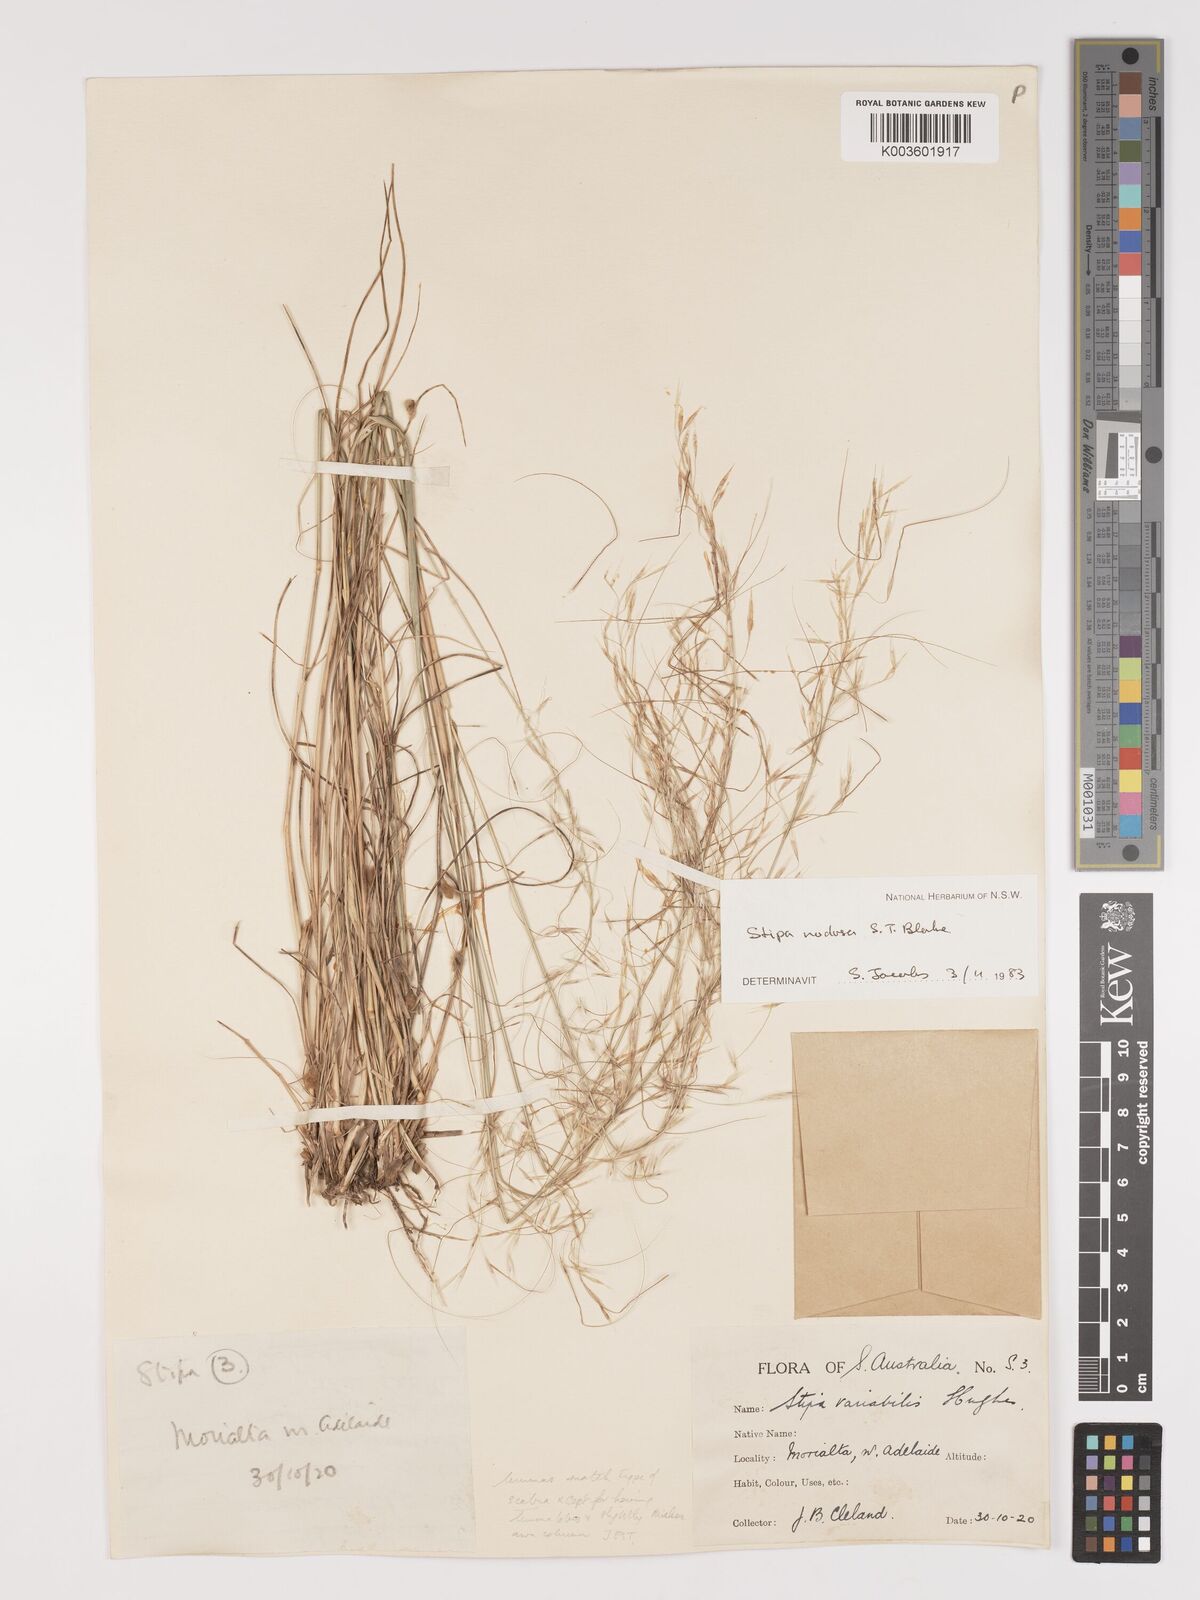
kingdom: Plantae
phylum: Tracheophyta
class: Liliopsida
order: Poales
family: Poaceae
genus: Austrostipa
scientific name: Austrostipa nodosa
